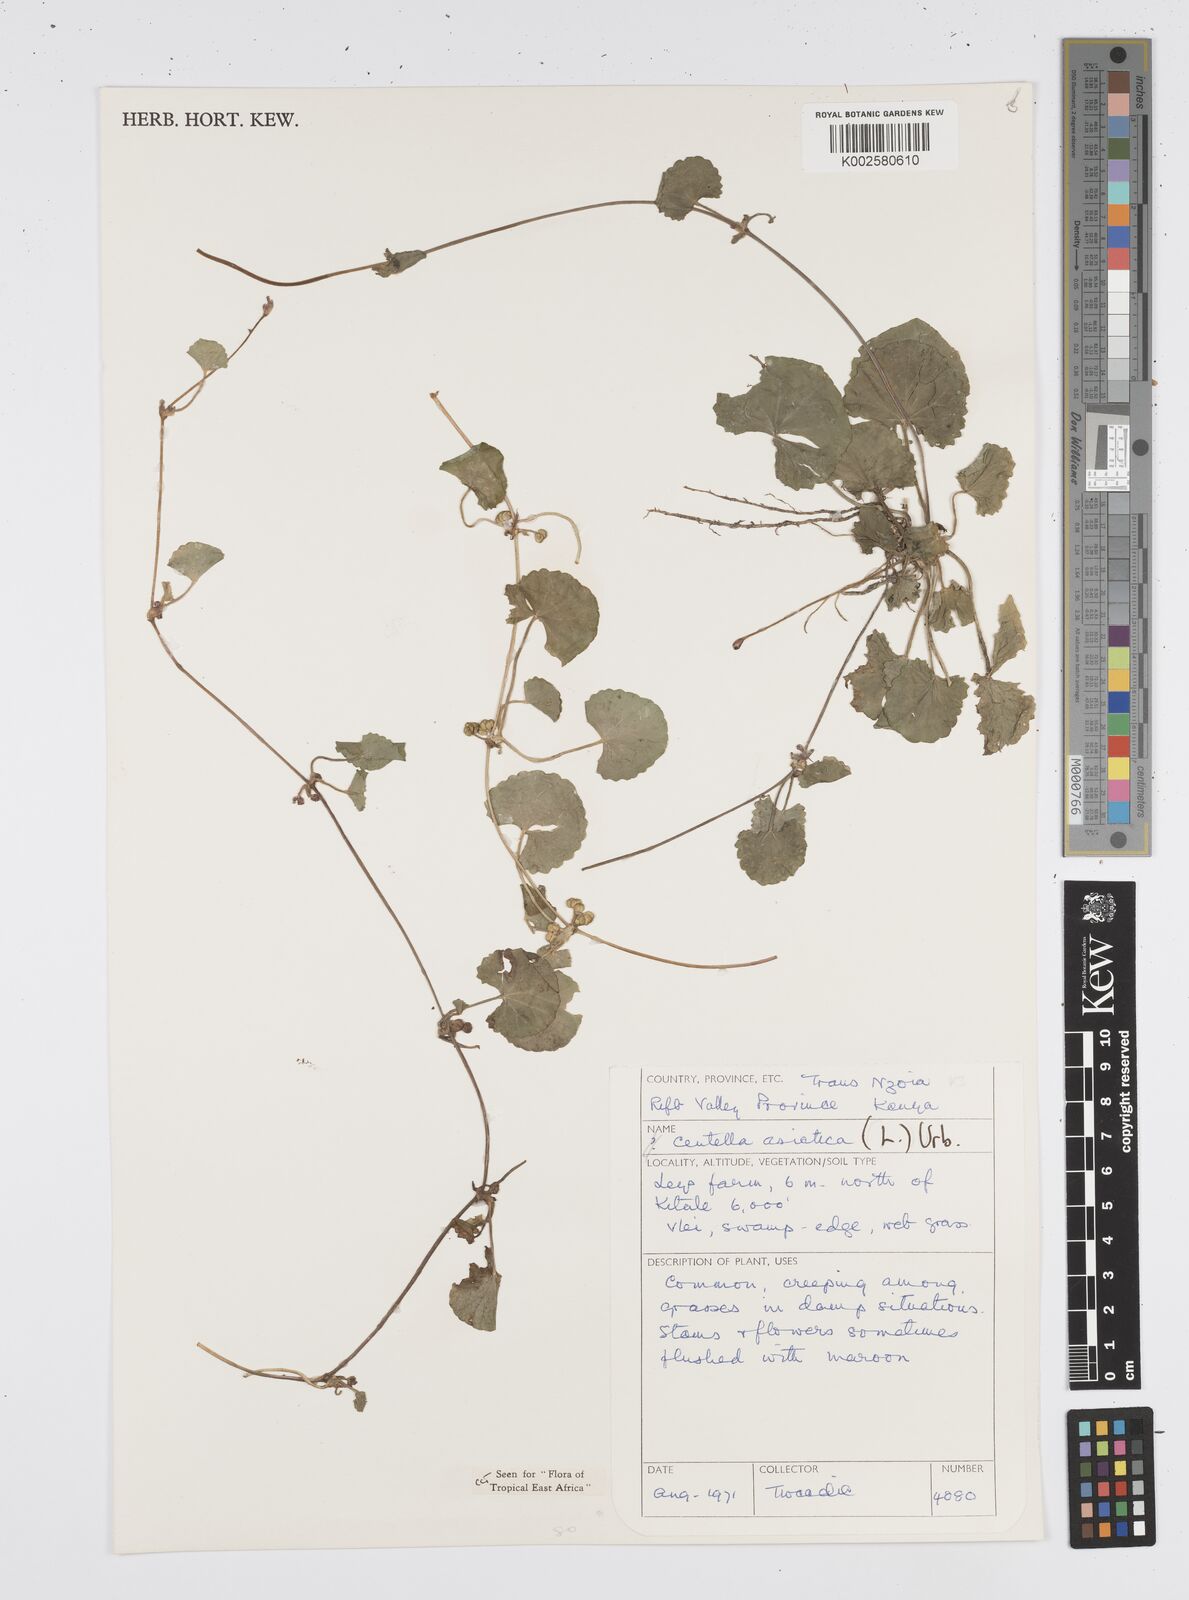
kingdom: Plantae
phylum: Tracheophyta
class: Magnoliopsida
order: Apiales
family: Apiaceae
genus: Centella
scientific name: Centella asiatica
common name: Spadeleaf
